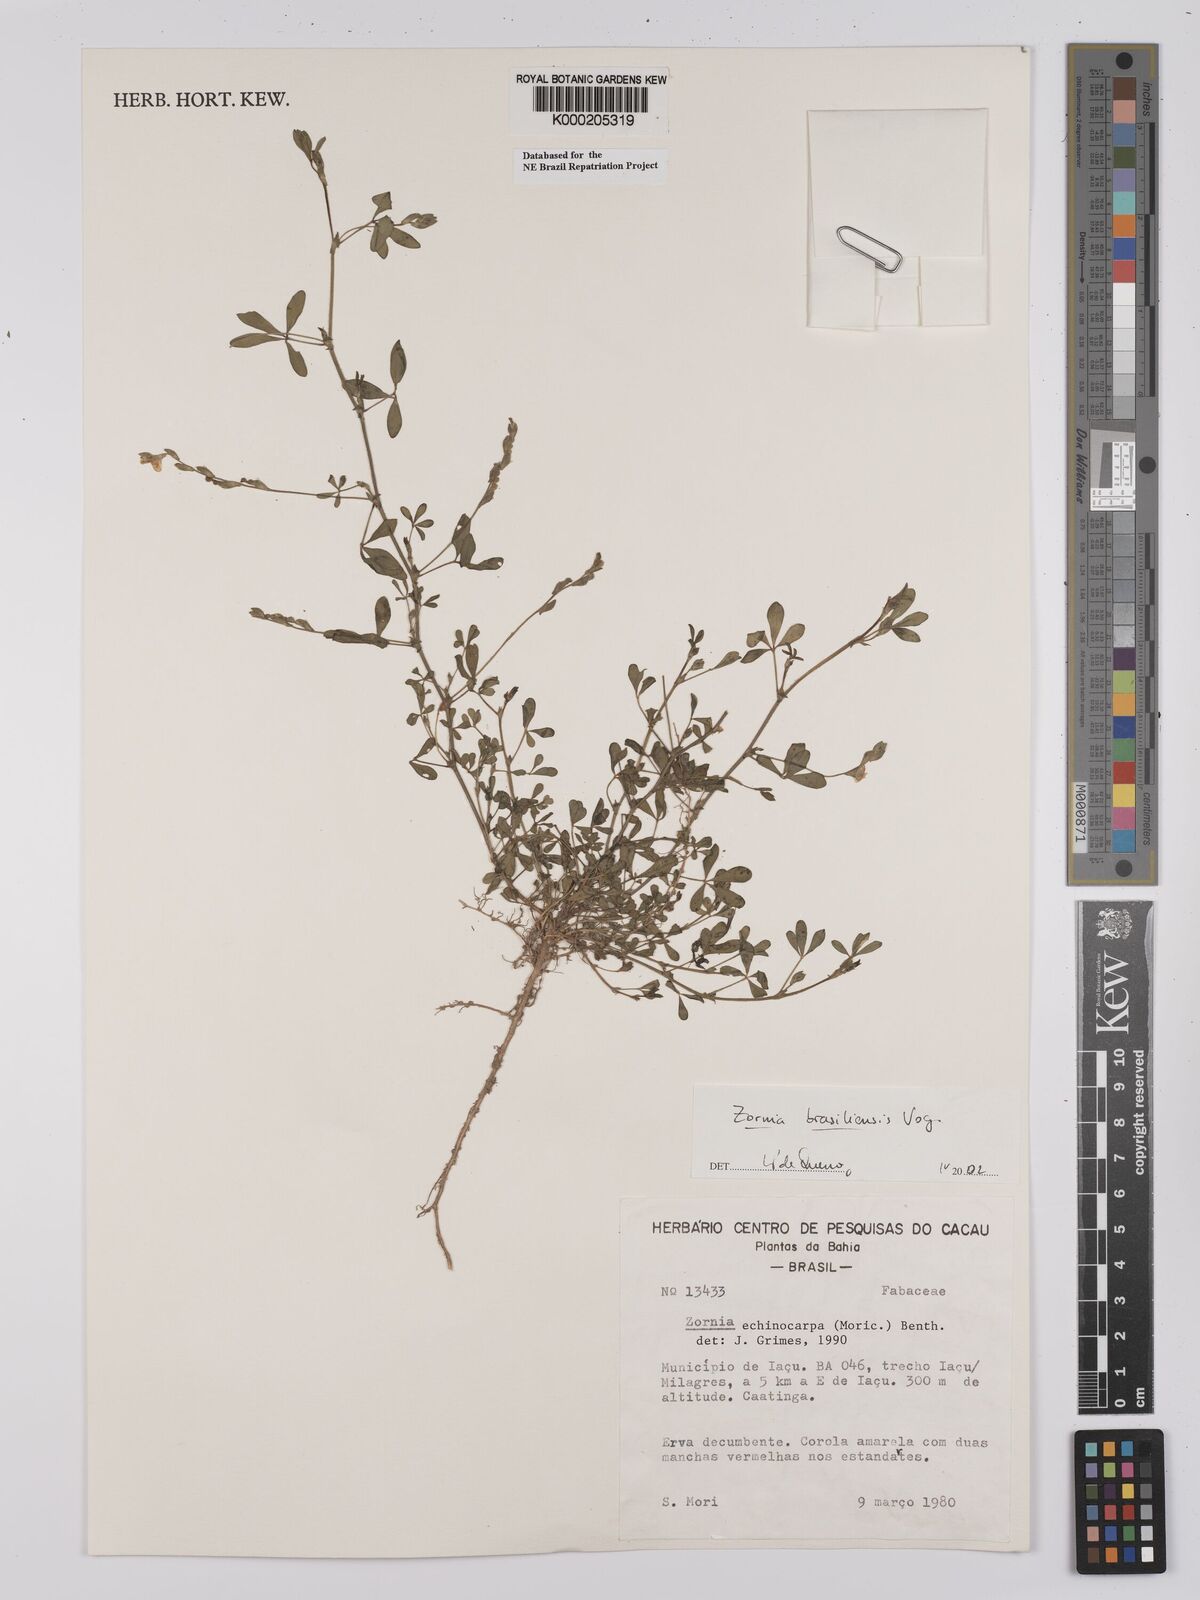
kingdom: Plantae
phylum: Tracheophyta
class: Magnoliopsida
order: Fabales
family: Fabaceae
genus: Zornia
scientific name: Zornia brasiliensis
